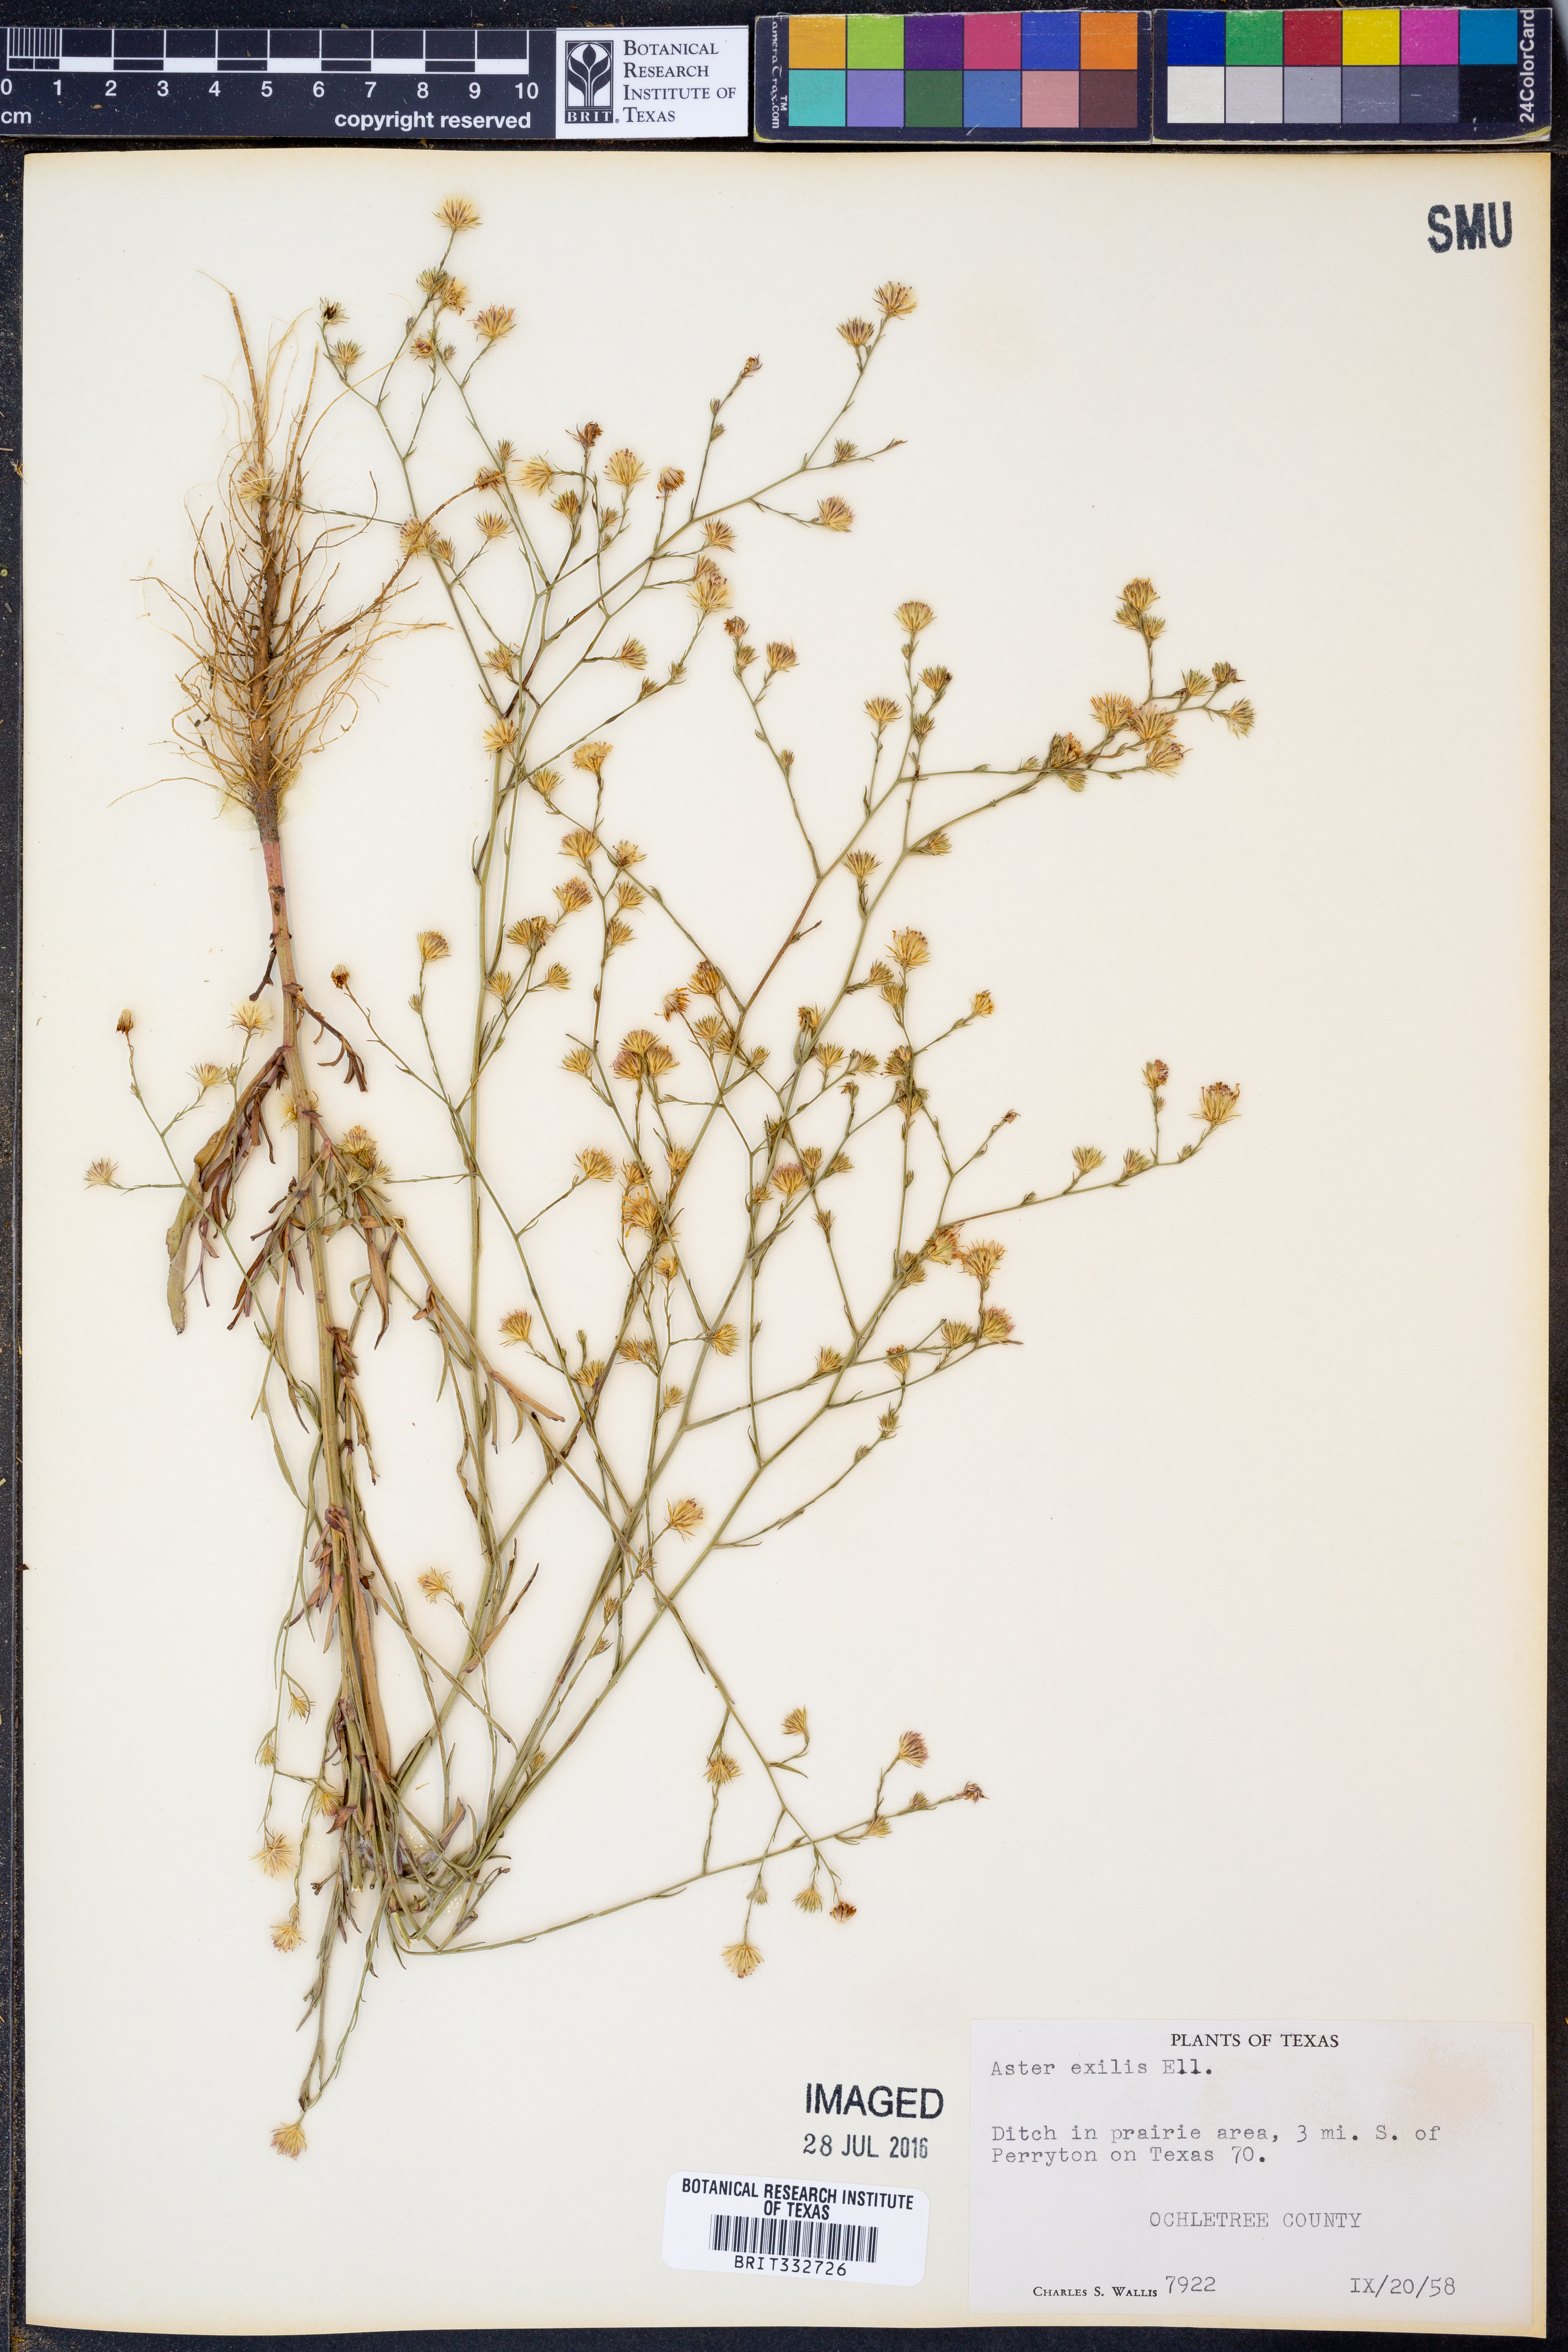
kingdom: Plantae
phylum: Tracheophyta
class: Magnoliopsida
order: Asterales
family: Asteraceae
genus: Symphyotrichum
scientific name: Symphyotrichum expansum
